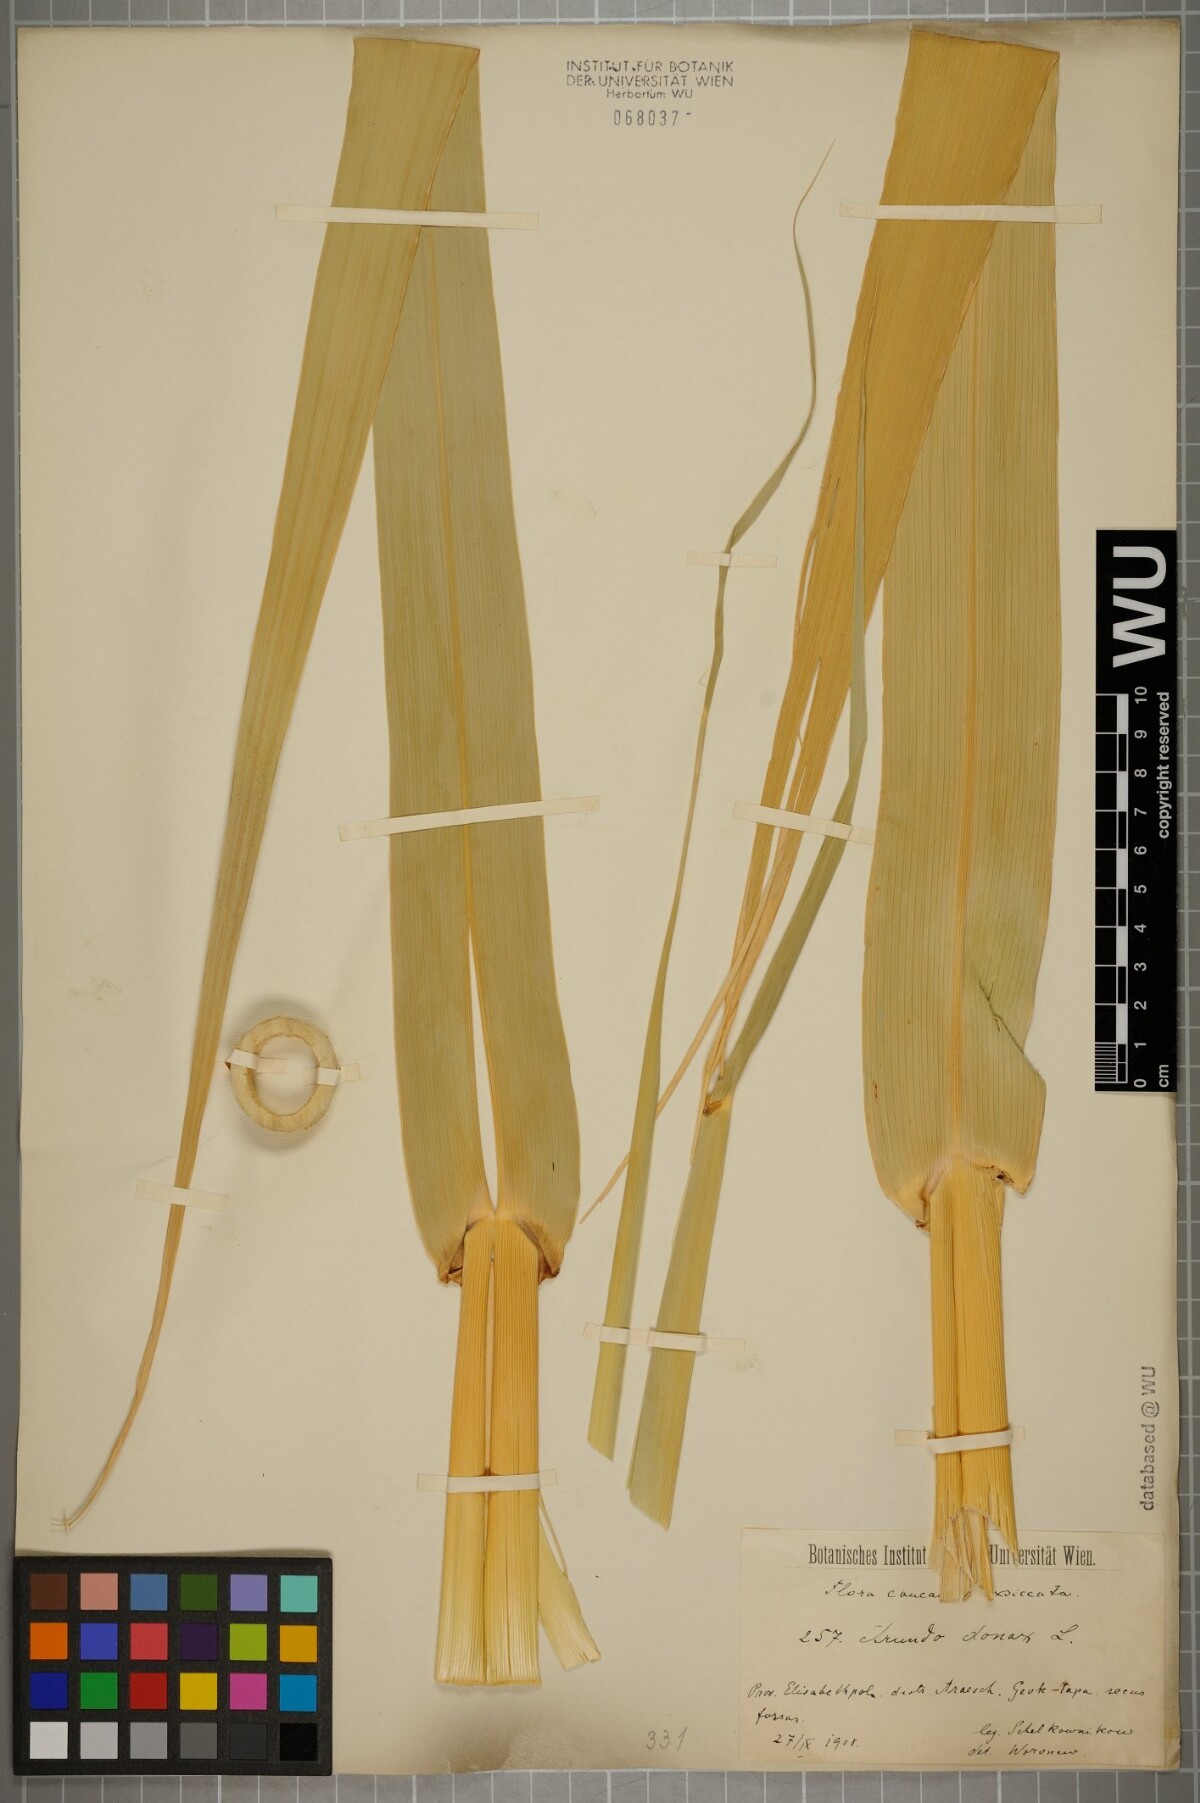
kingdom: Plantae
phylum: Tracheophyta
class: Liliopsida
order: Poales
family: Poaceae
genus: Arundo
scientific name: Arundo donax
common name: Giant reed
